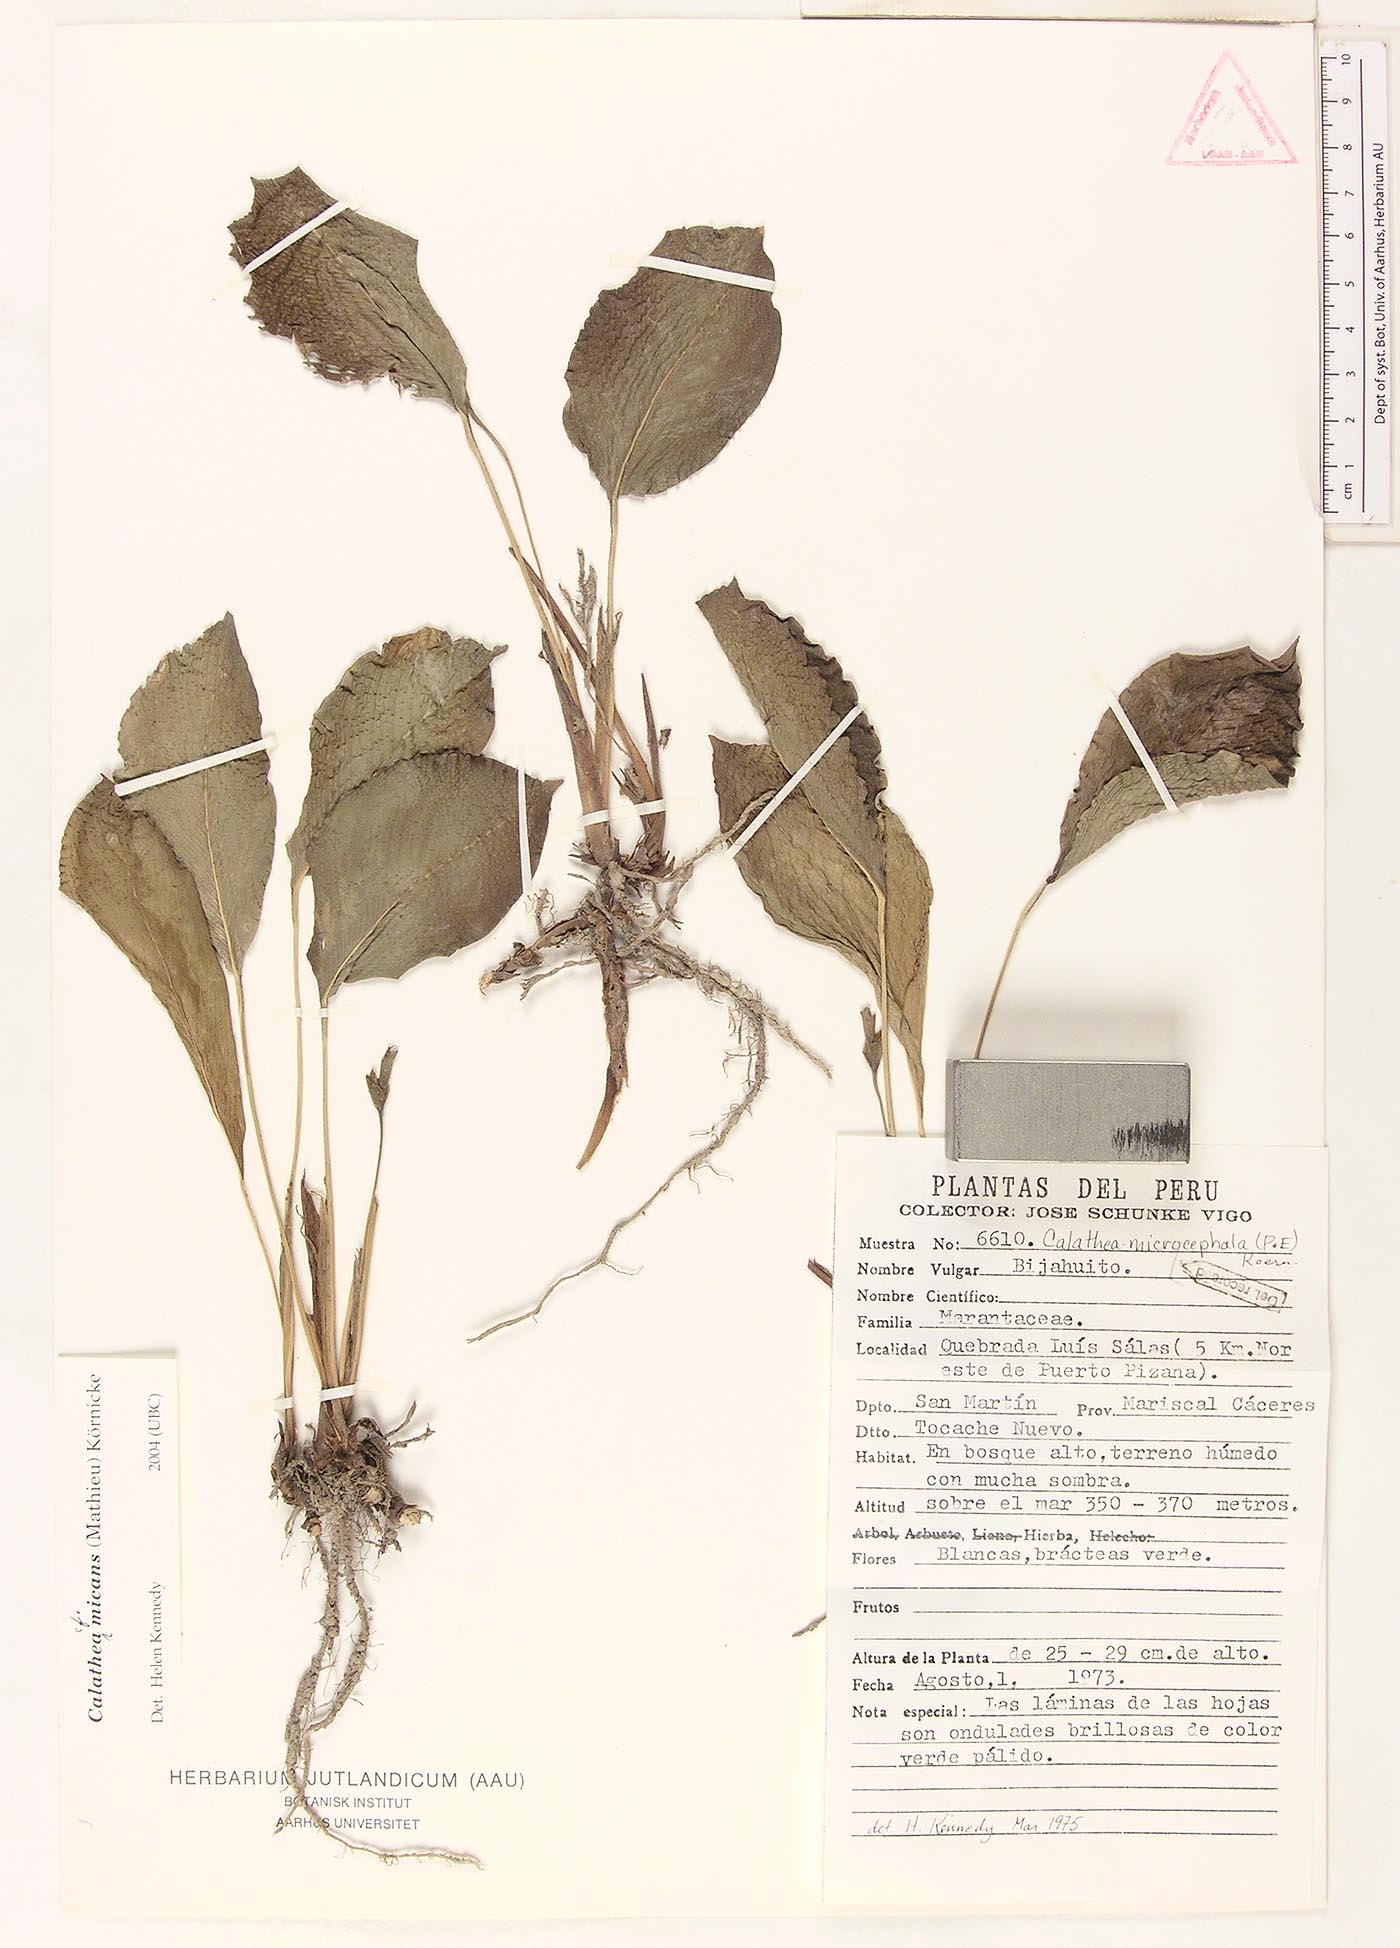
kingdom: Plantae
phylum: Tracheophyta
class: Liliopsida
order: Zingiberales
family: Marantaceae
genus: Goeppertia
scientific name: Goeppertia micans
